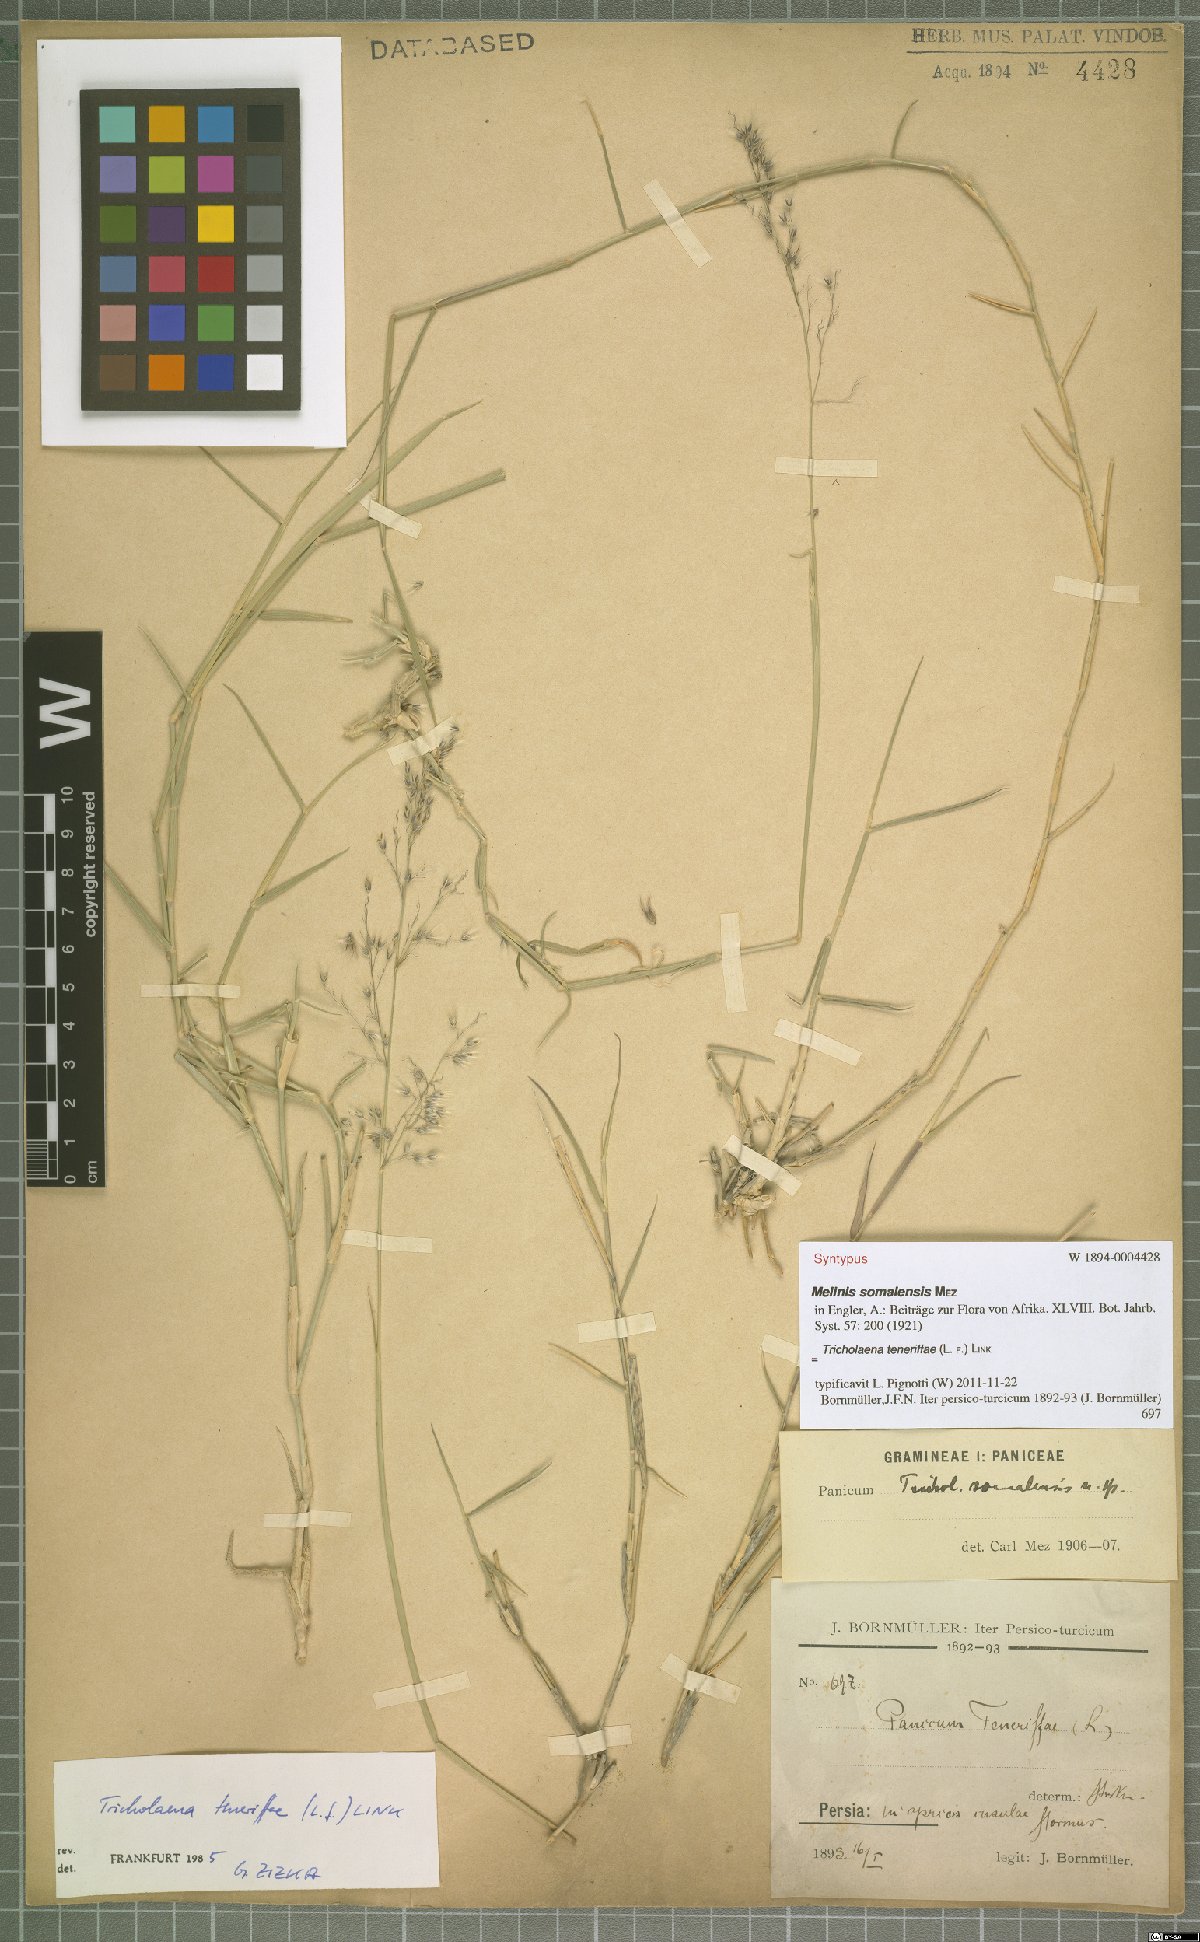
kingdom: Plantae
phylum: Tracheophyta
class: Liliopsida
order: Poales
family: Poaceae
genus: Tricholaena
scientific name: Tricholaena teneriffae
